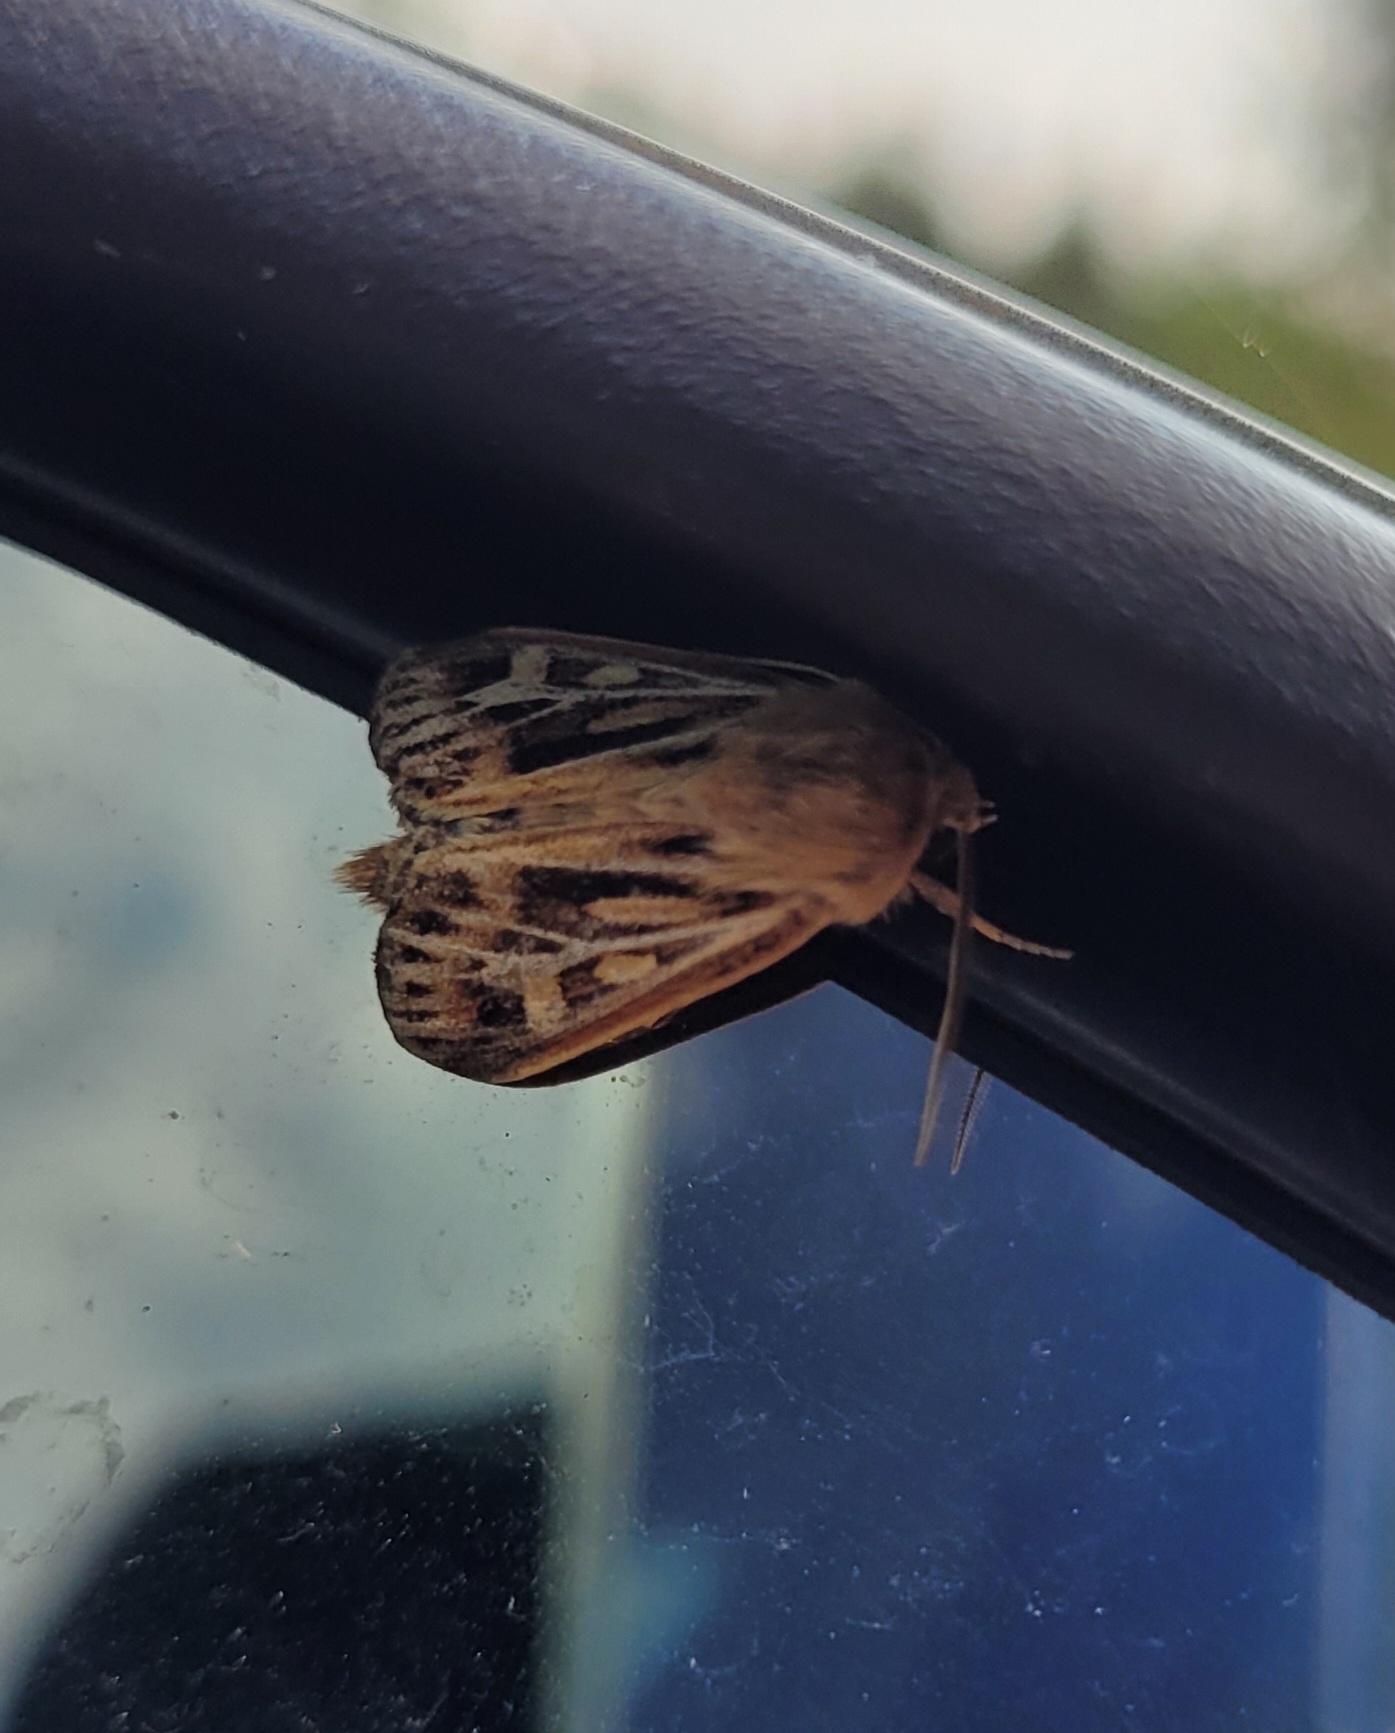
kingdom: Animalia
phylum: Arthropoda
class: Insecta
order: Lepidoptera
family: Noctuidae
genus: Cerapteryx
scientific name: Cerapteryx graminis
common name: Mosebunkeugle
